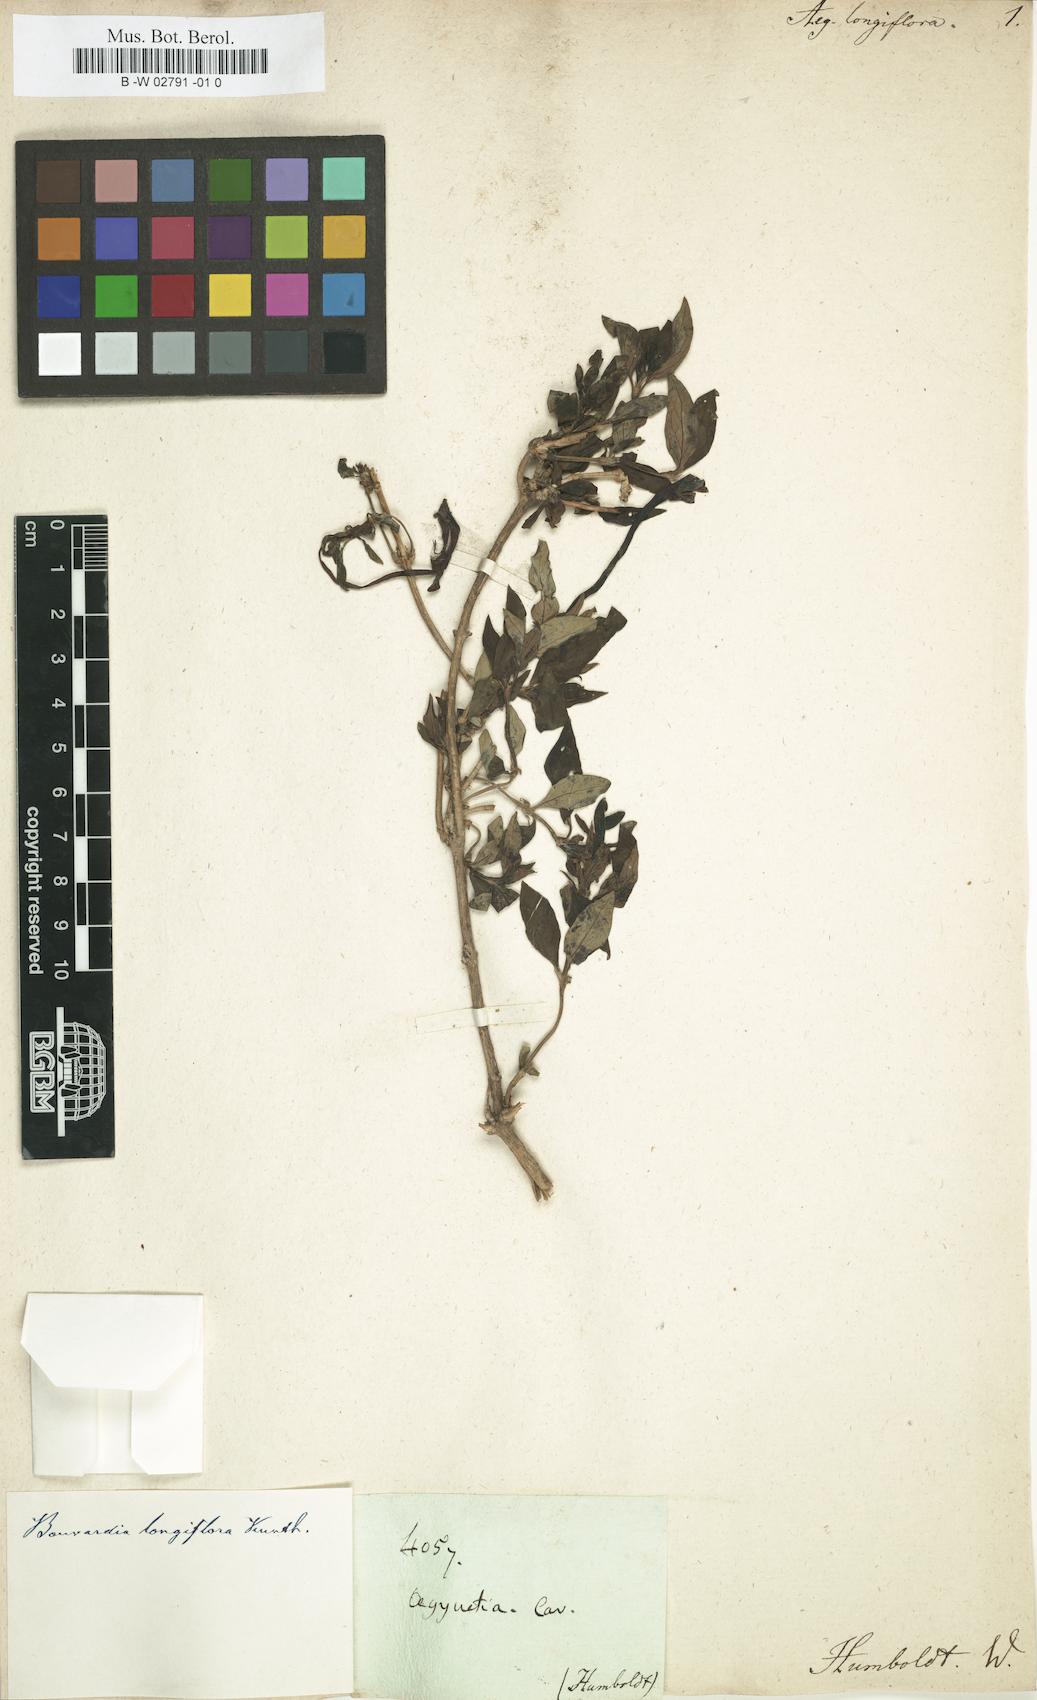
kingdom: Plantae
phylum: Tracheophyta
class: Magnoliopsida
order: Gentianales
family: Rubiaceae
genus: Bouvardia
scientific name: Bouvardia longiflora
